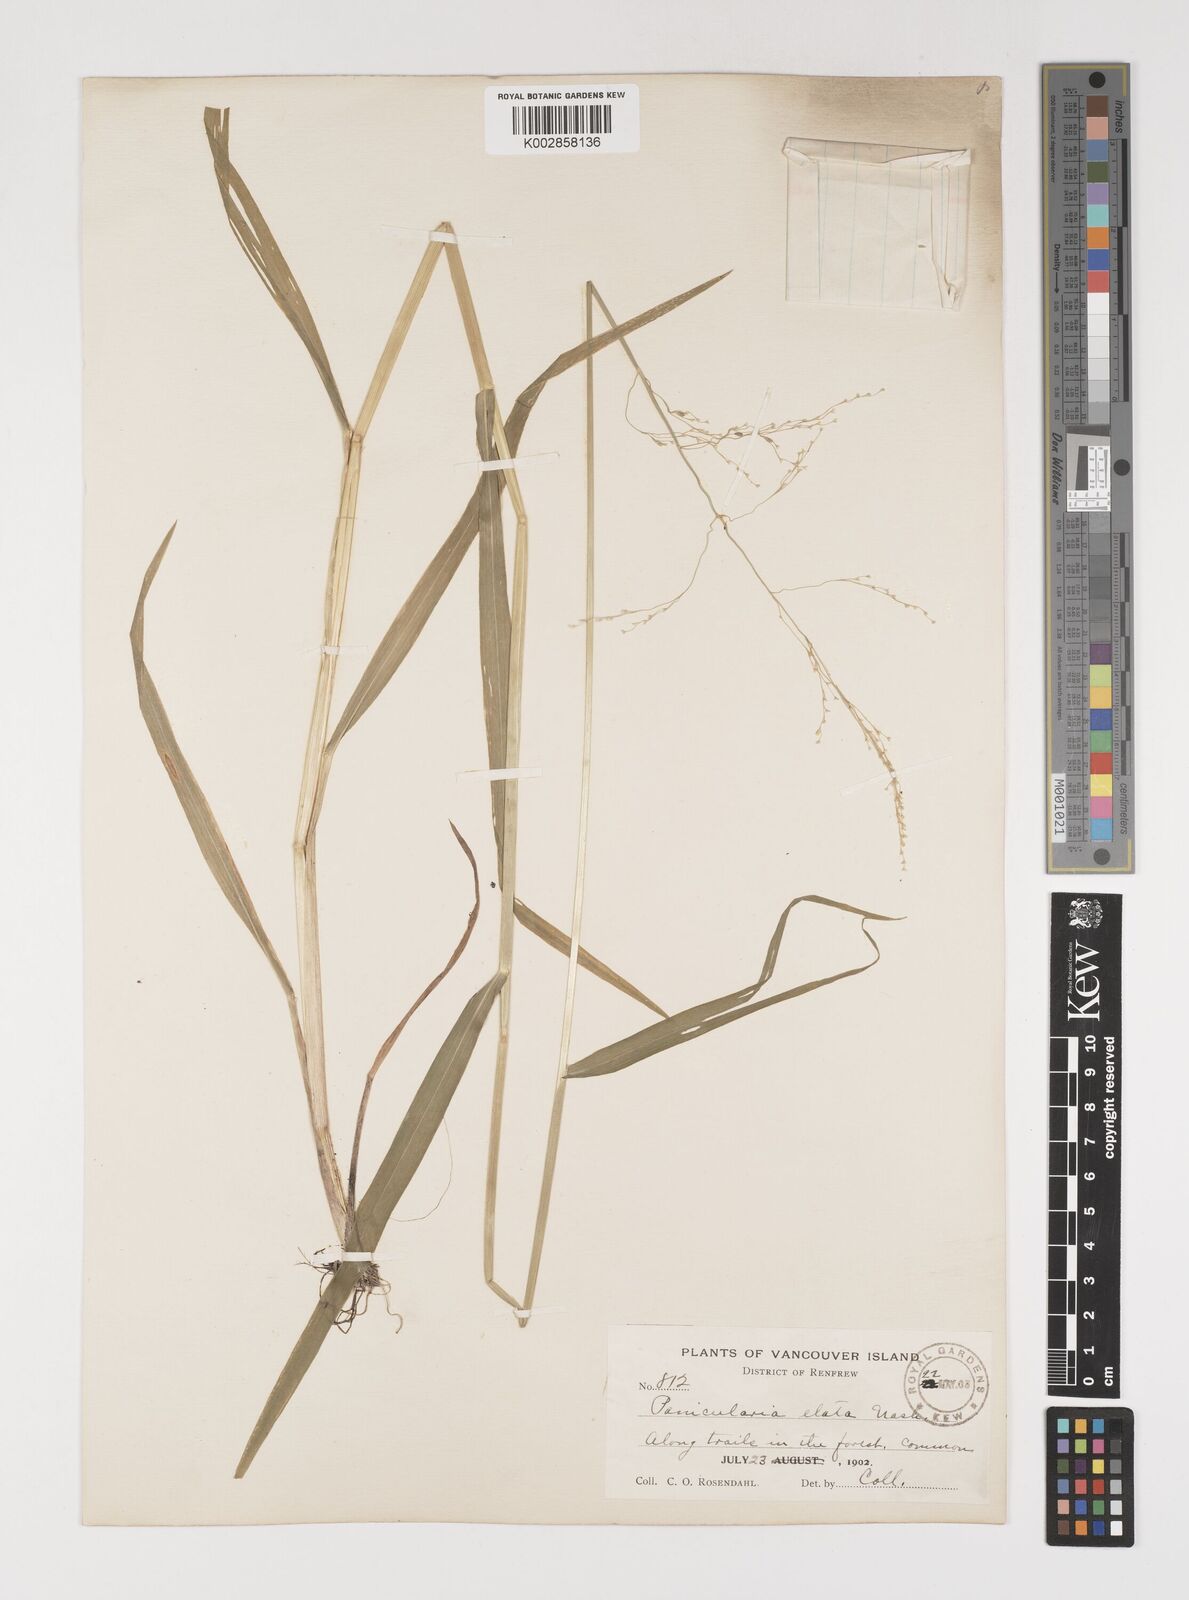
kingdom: Plantae
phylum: Tracheophyta
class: Liliopsida
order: Poales
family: Poaceae
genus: Torreyochloa
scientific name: Torreyochloa pallida
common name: Pale false mannagrass
